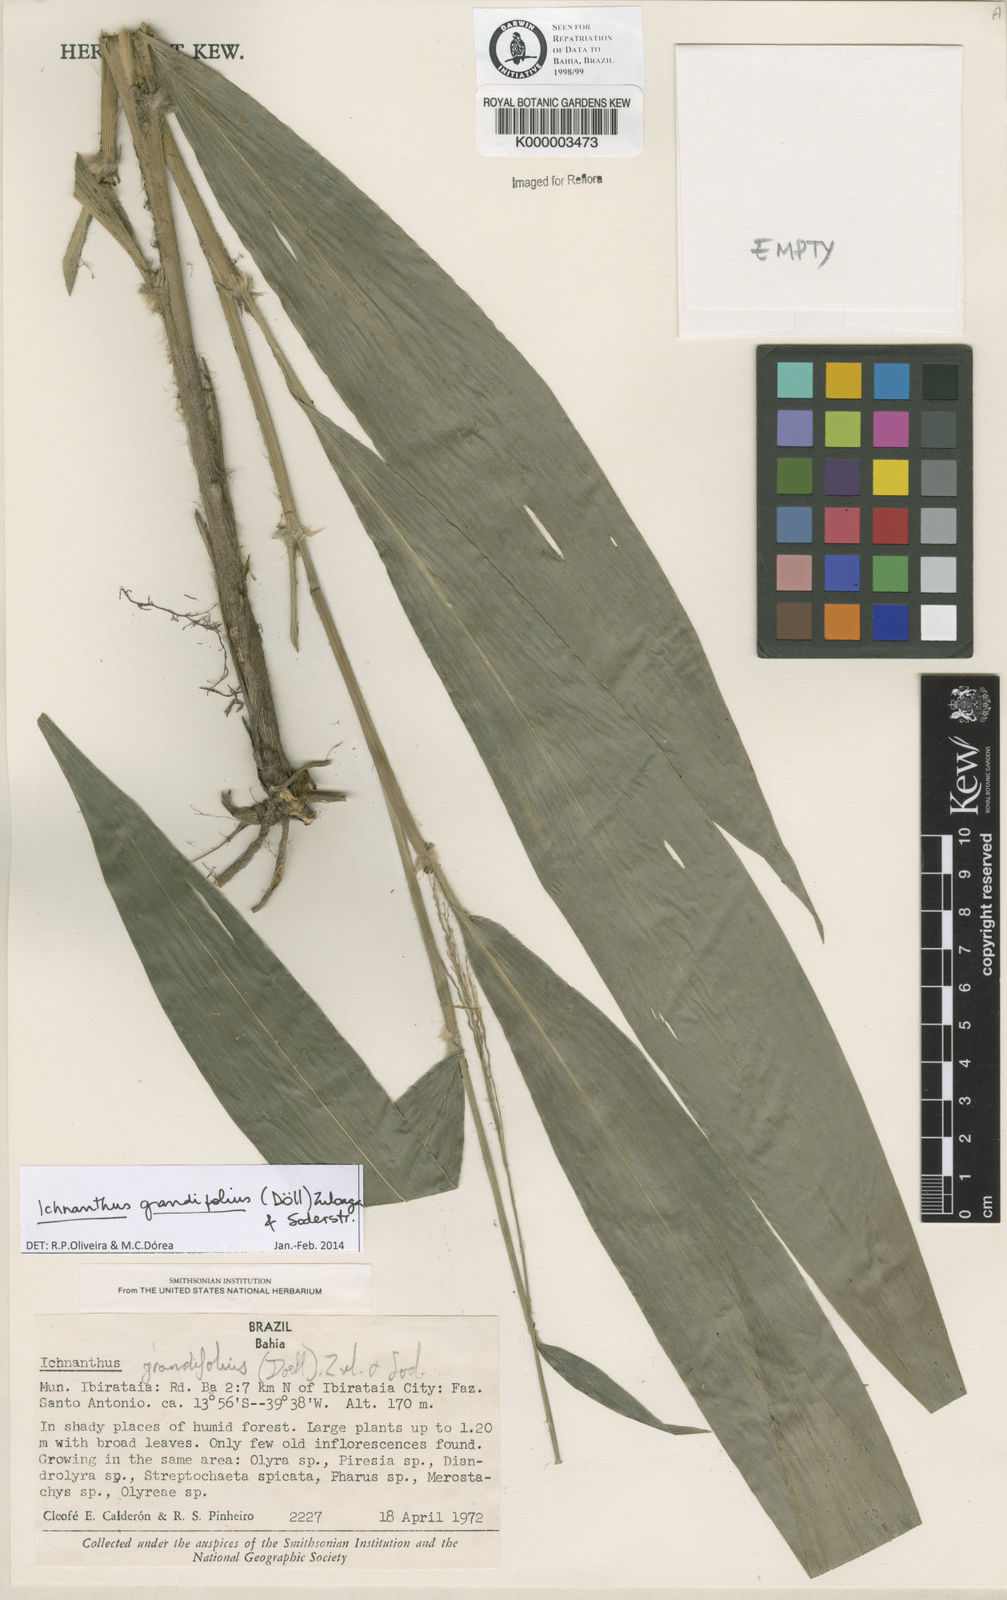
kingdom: Plantae
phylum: Tracheophyta
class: Liliopsida
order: Poales
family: Poaceae
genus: Oedochloa
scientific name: Oedochloa grandifolia
